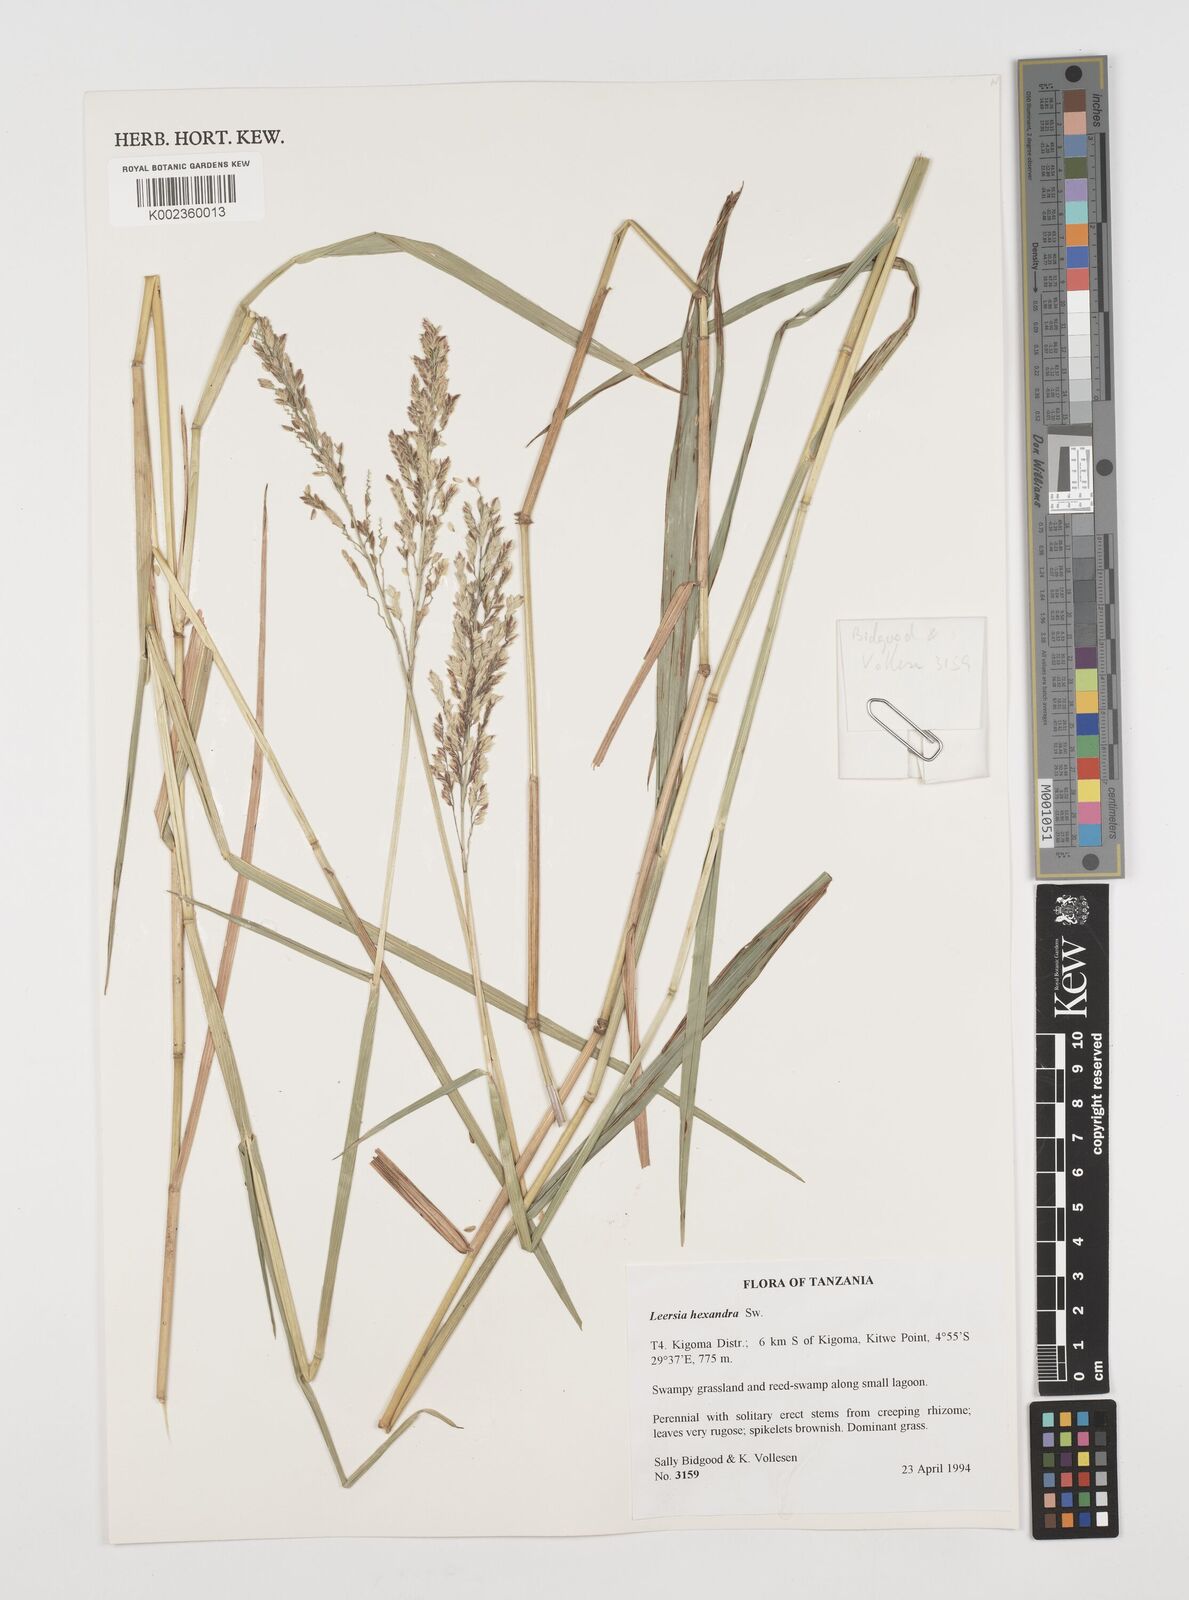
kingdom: Plantae
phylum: Tracheophyta
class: Liliopsida
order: Poales
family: Poaceae
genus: Leersia
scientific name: Leersia hexandra
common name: Southern cut grass
